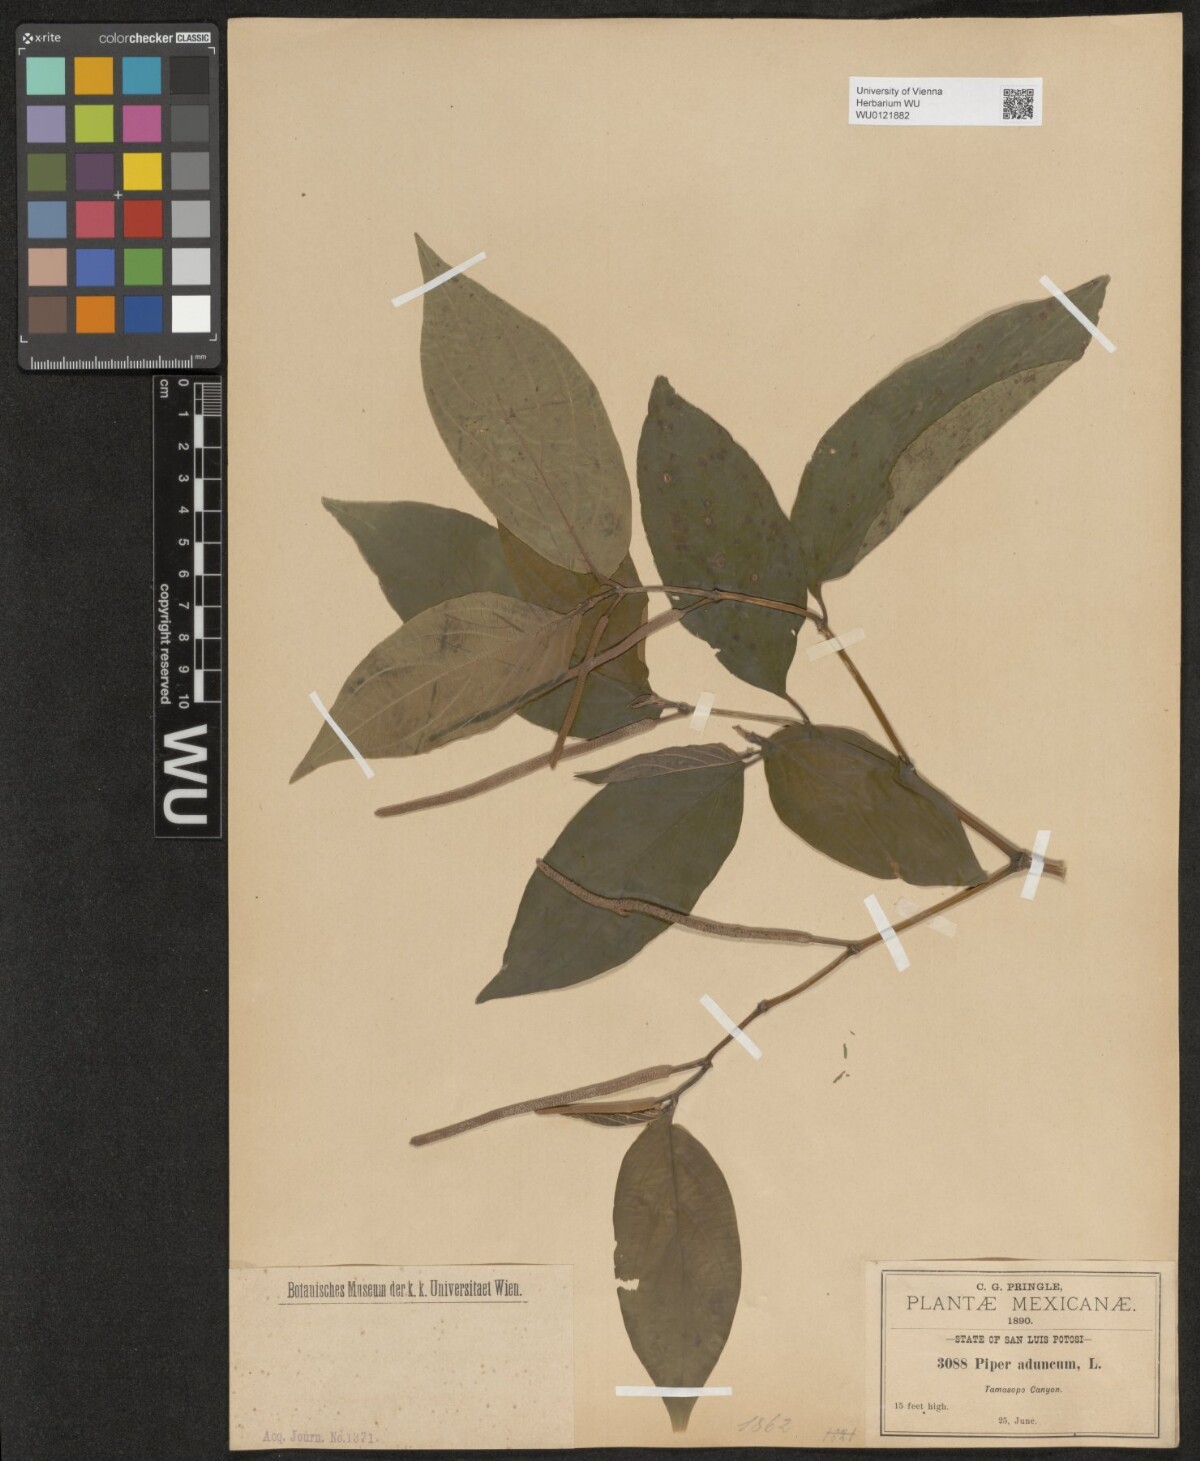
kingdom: Plantae
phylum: Tracheophyta
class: Magnoliopsida
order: Piperales
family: Piperaceae
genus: Piper
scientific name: Piper aduncum
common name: Spiked pepper
